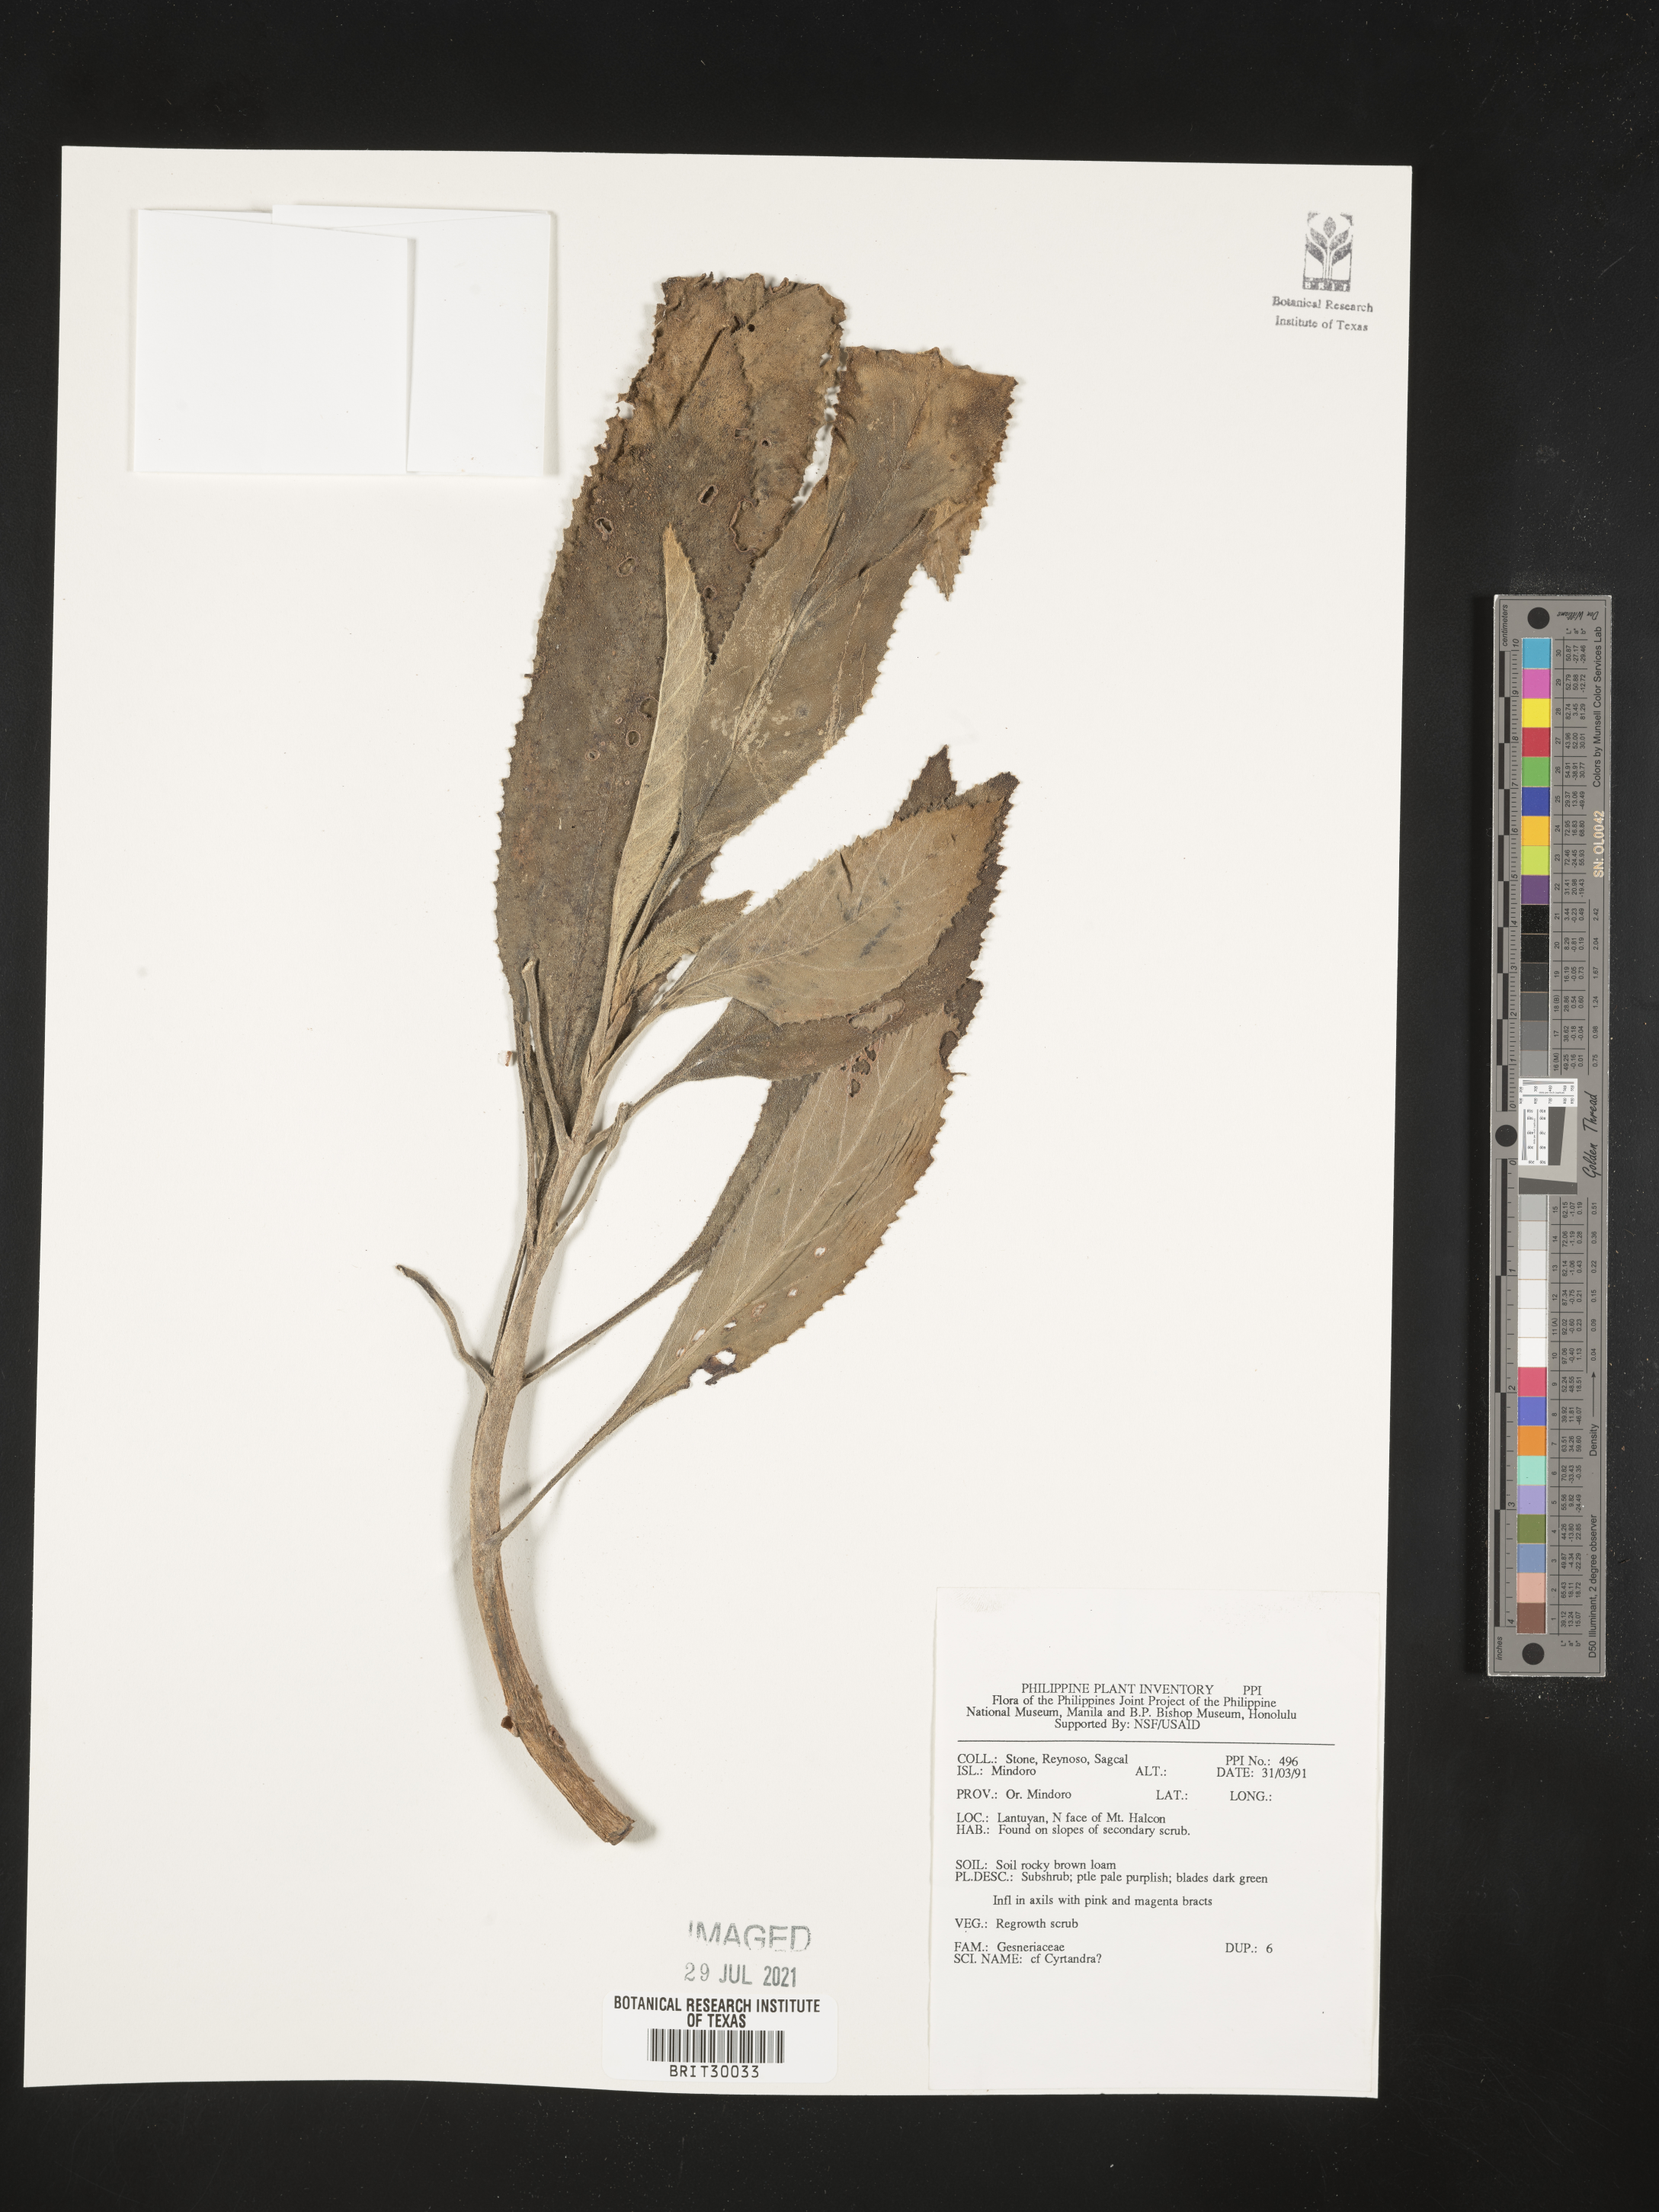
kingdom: Plantae
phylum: Tracheophyta
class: Magnoliopsida
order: Lamiales
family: Gesneriaceae
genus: Cyrtandra
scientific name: Cyrtandra
